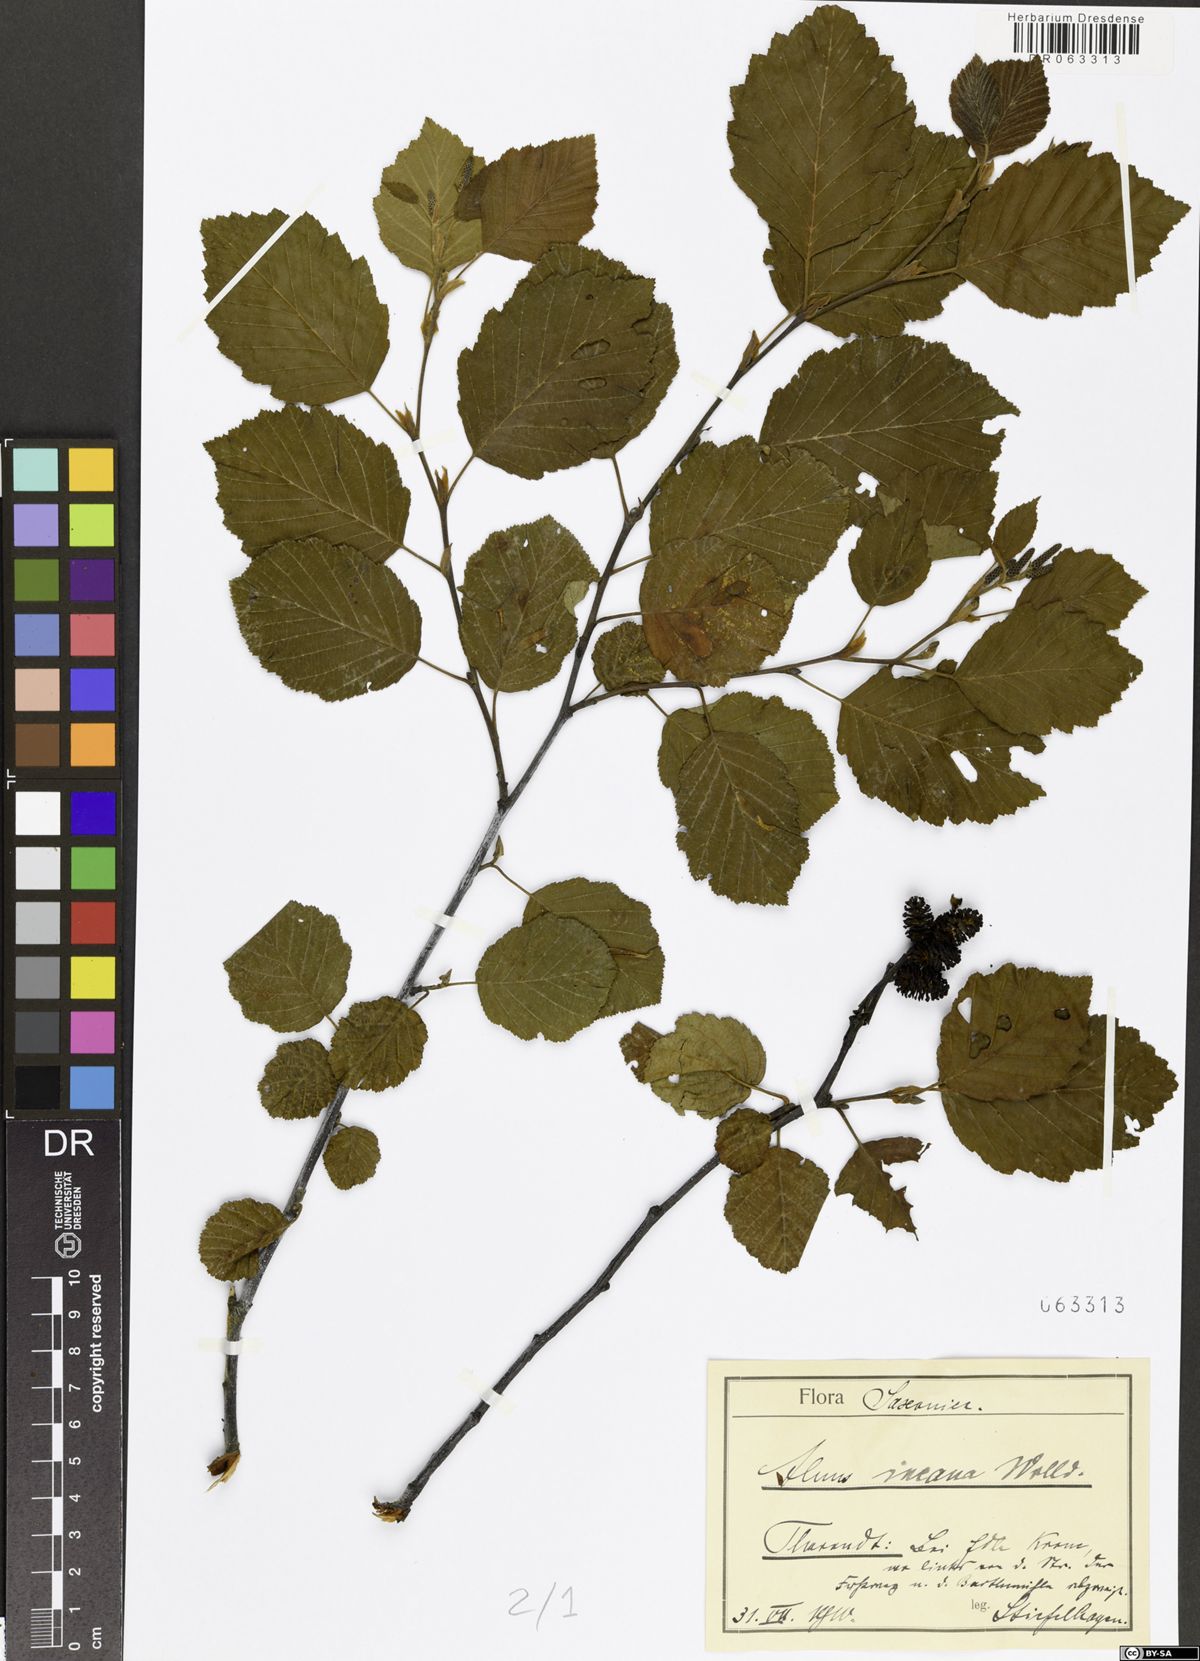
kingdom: Plantae
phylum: Tracheophyta
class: Magnoliopsida
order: Fagales
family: Betulaceae
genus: Alnus
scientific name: Alnus incana
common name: Grey alder
